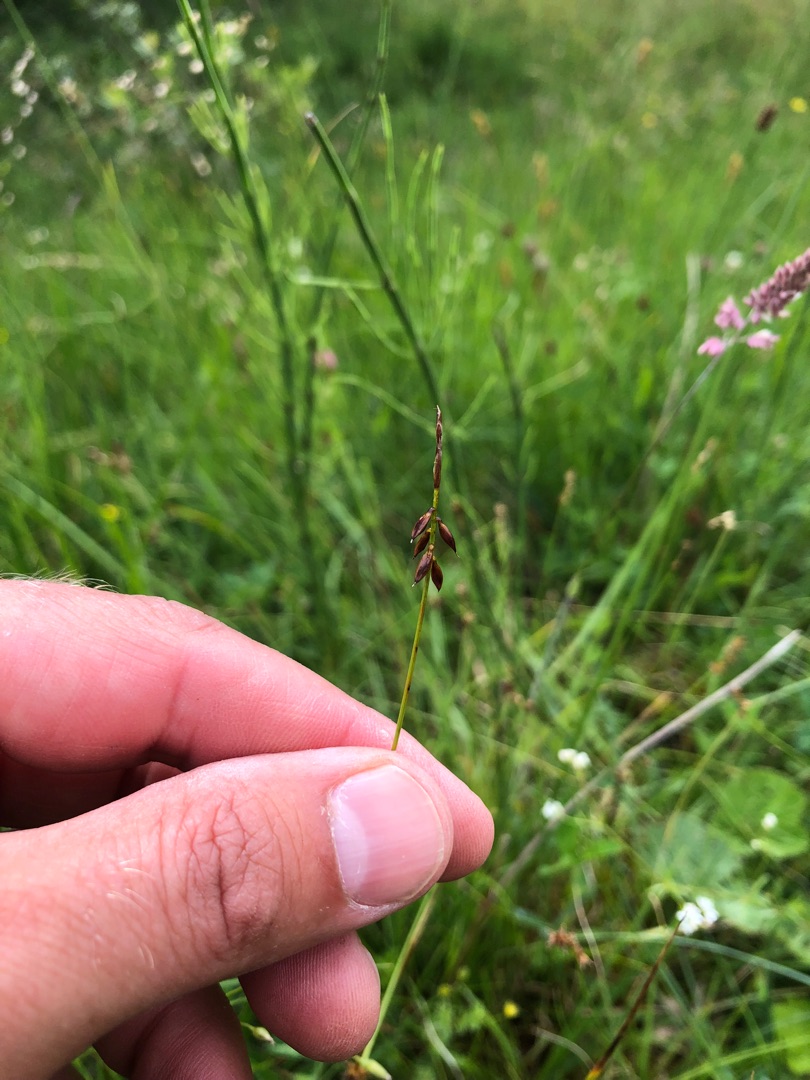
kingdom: Plantae
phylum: Tracheophyta
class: Liliopsida
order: Poales
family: Cyperaceae
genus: Carex
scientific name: Carex pulicaris
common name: Loppe-star
